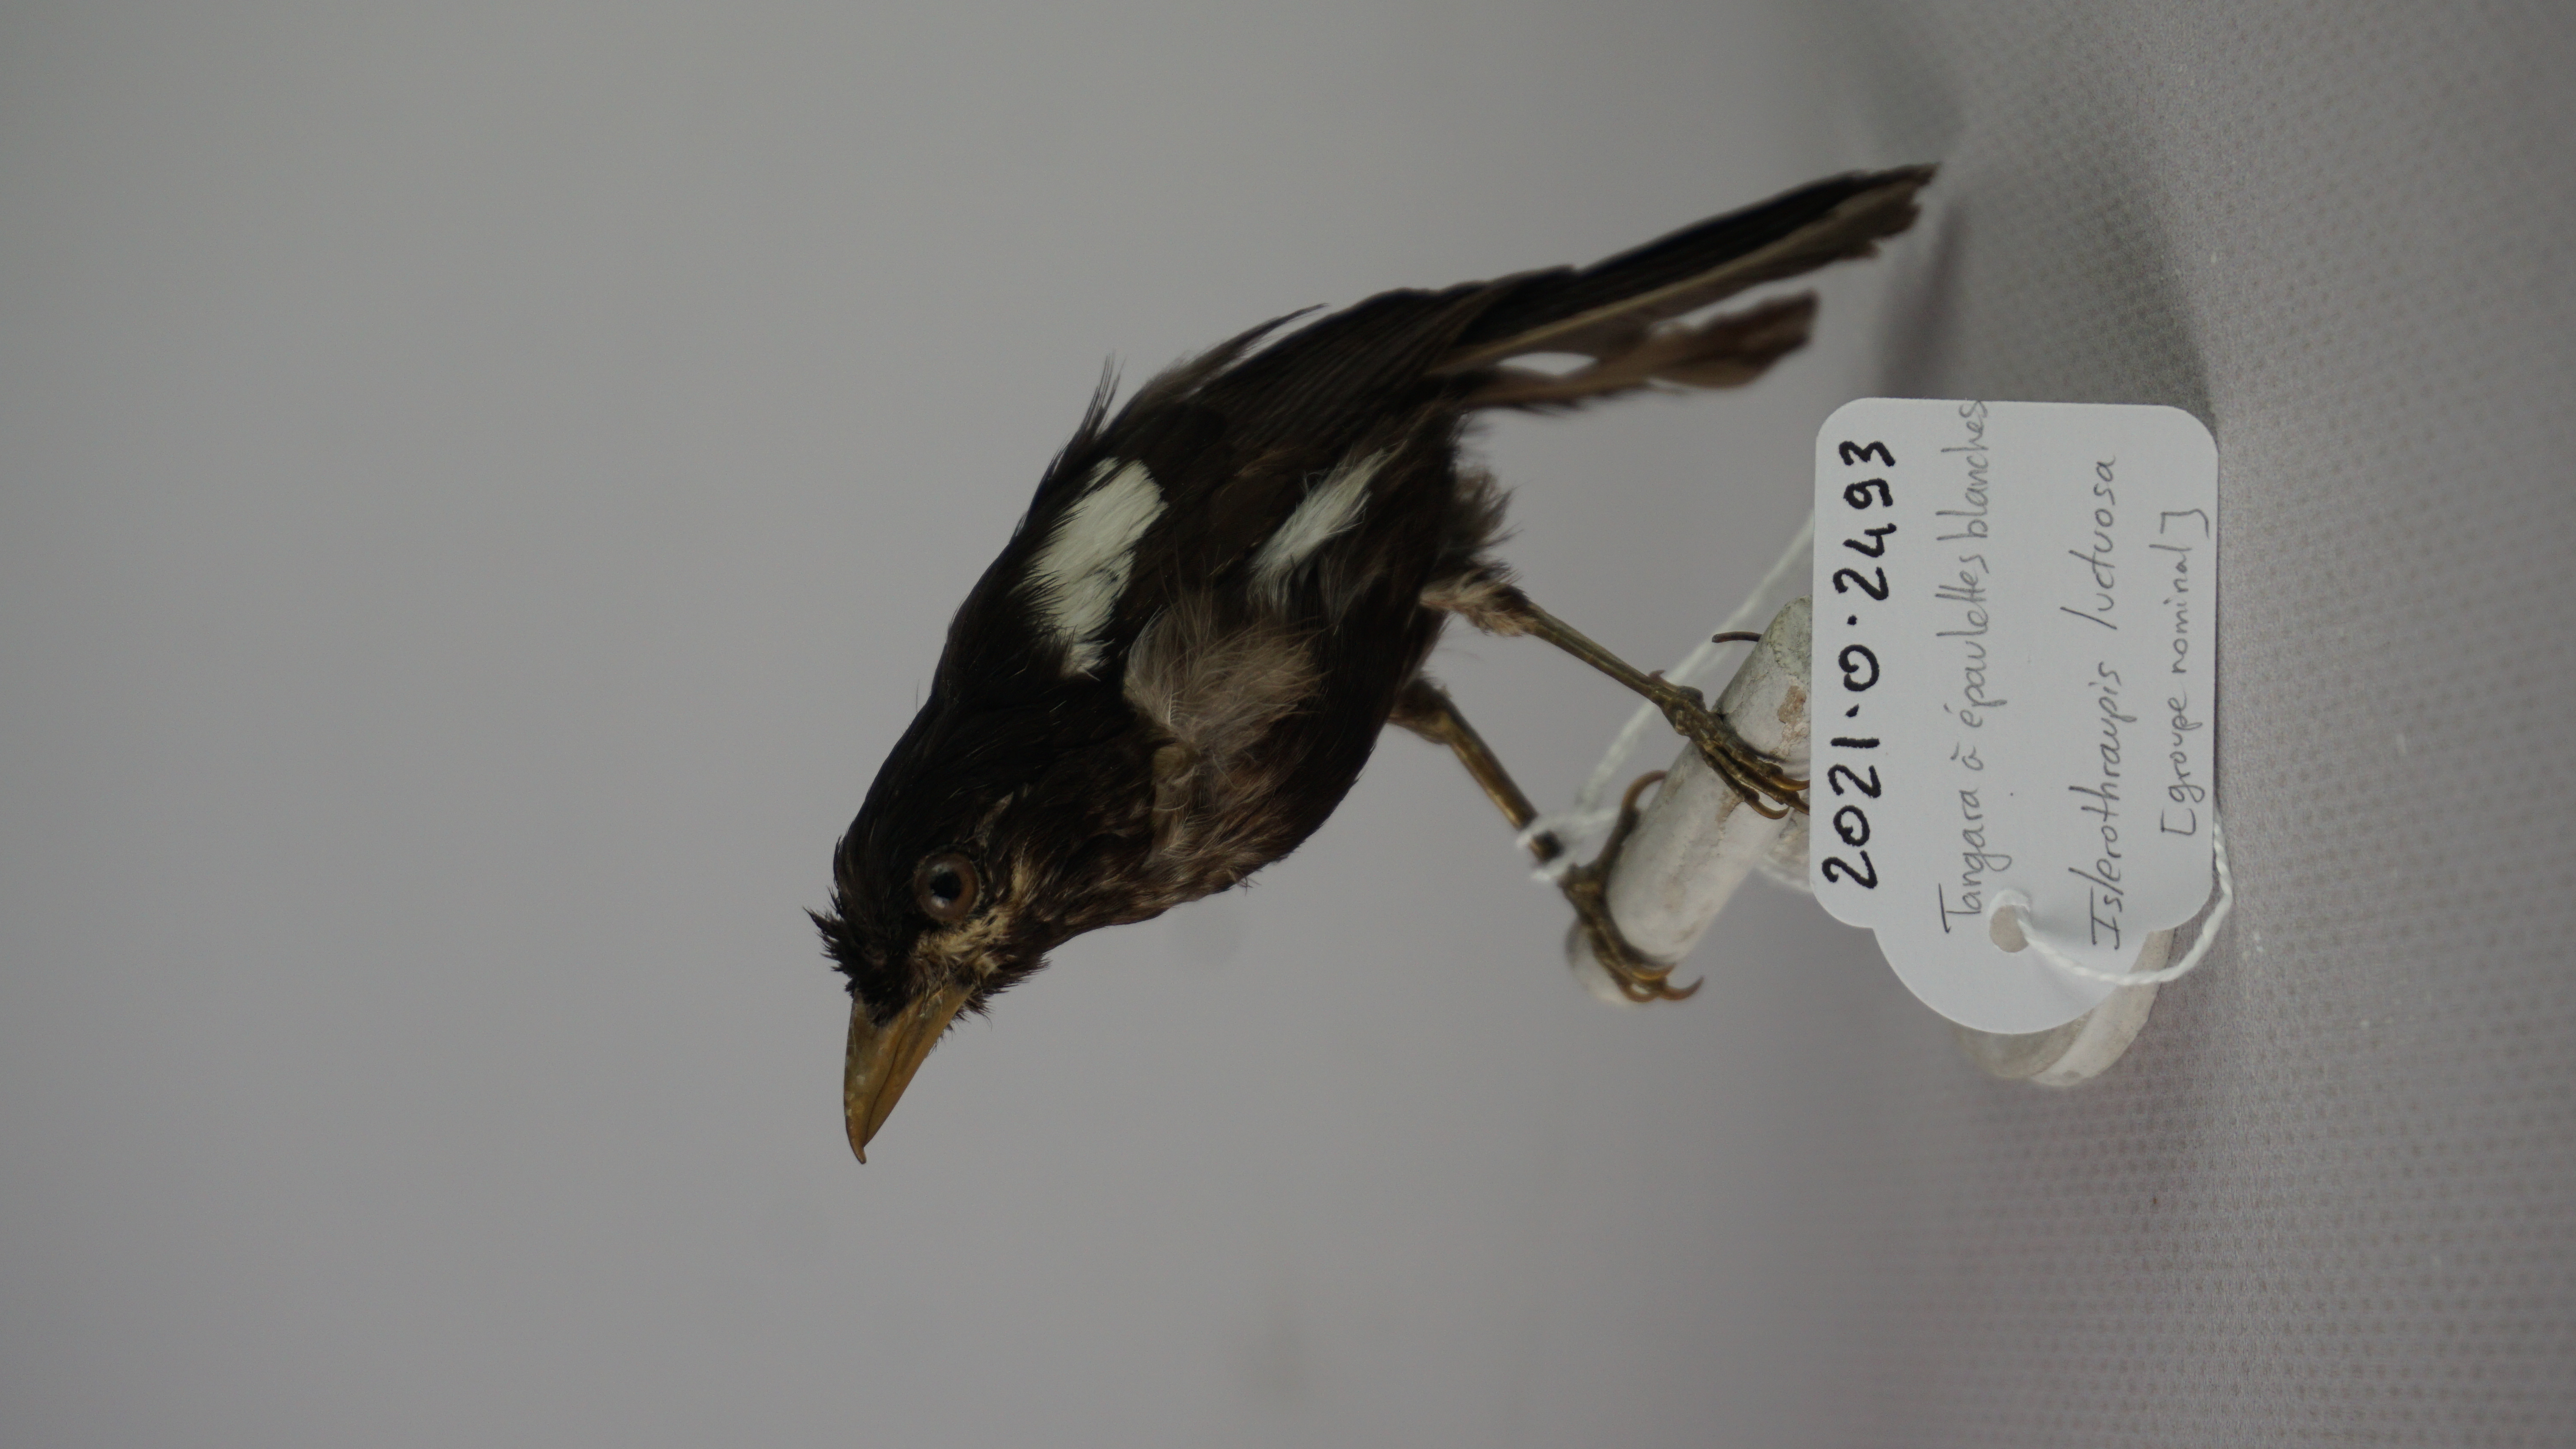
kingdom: Animalia
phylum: Chordata
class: Aves
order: Passeriformes
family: Thraupidae
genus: Loriotus
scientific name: Loriotus luctuosus
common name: White-shouldered tanager
